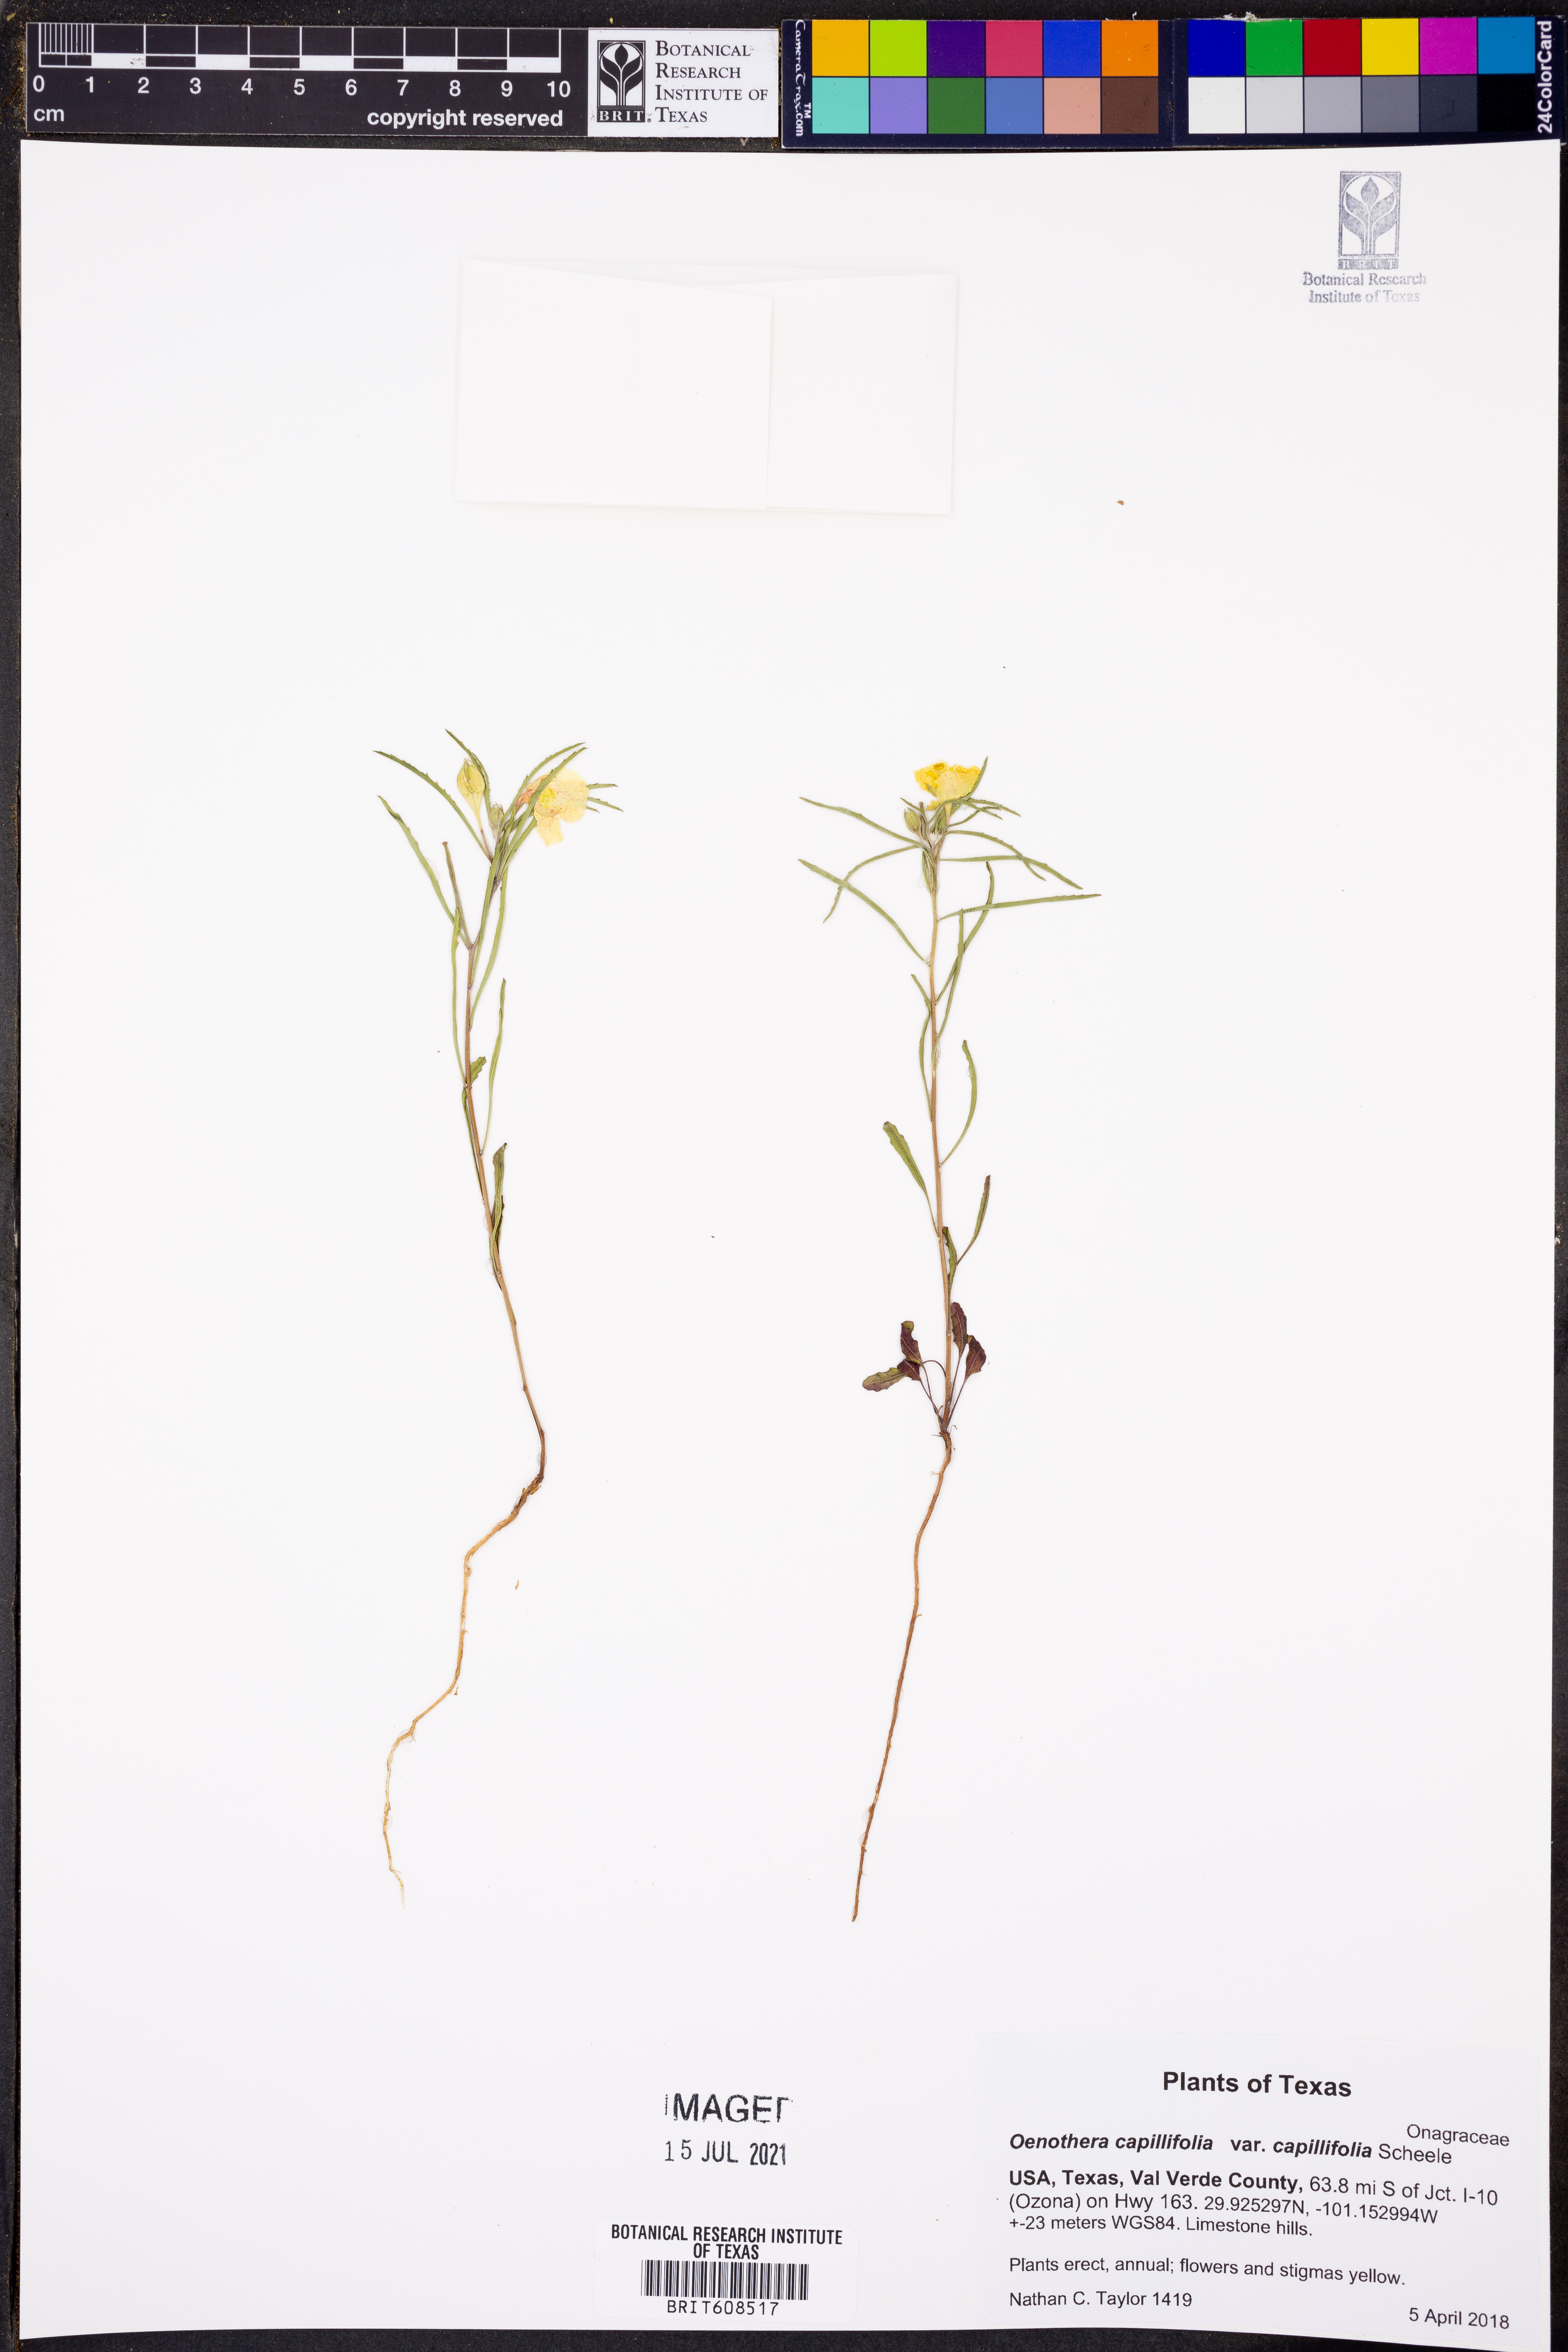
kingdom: Plantae
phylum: Tracheophyta
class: Magnoliopsida
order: Myrtales
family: Onagraceae
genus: Oenothera
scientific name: Oenothera capillifolia
